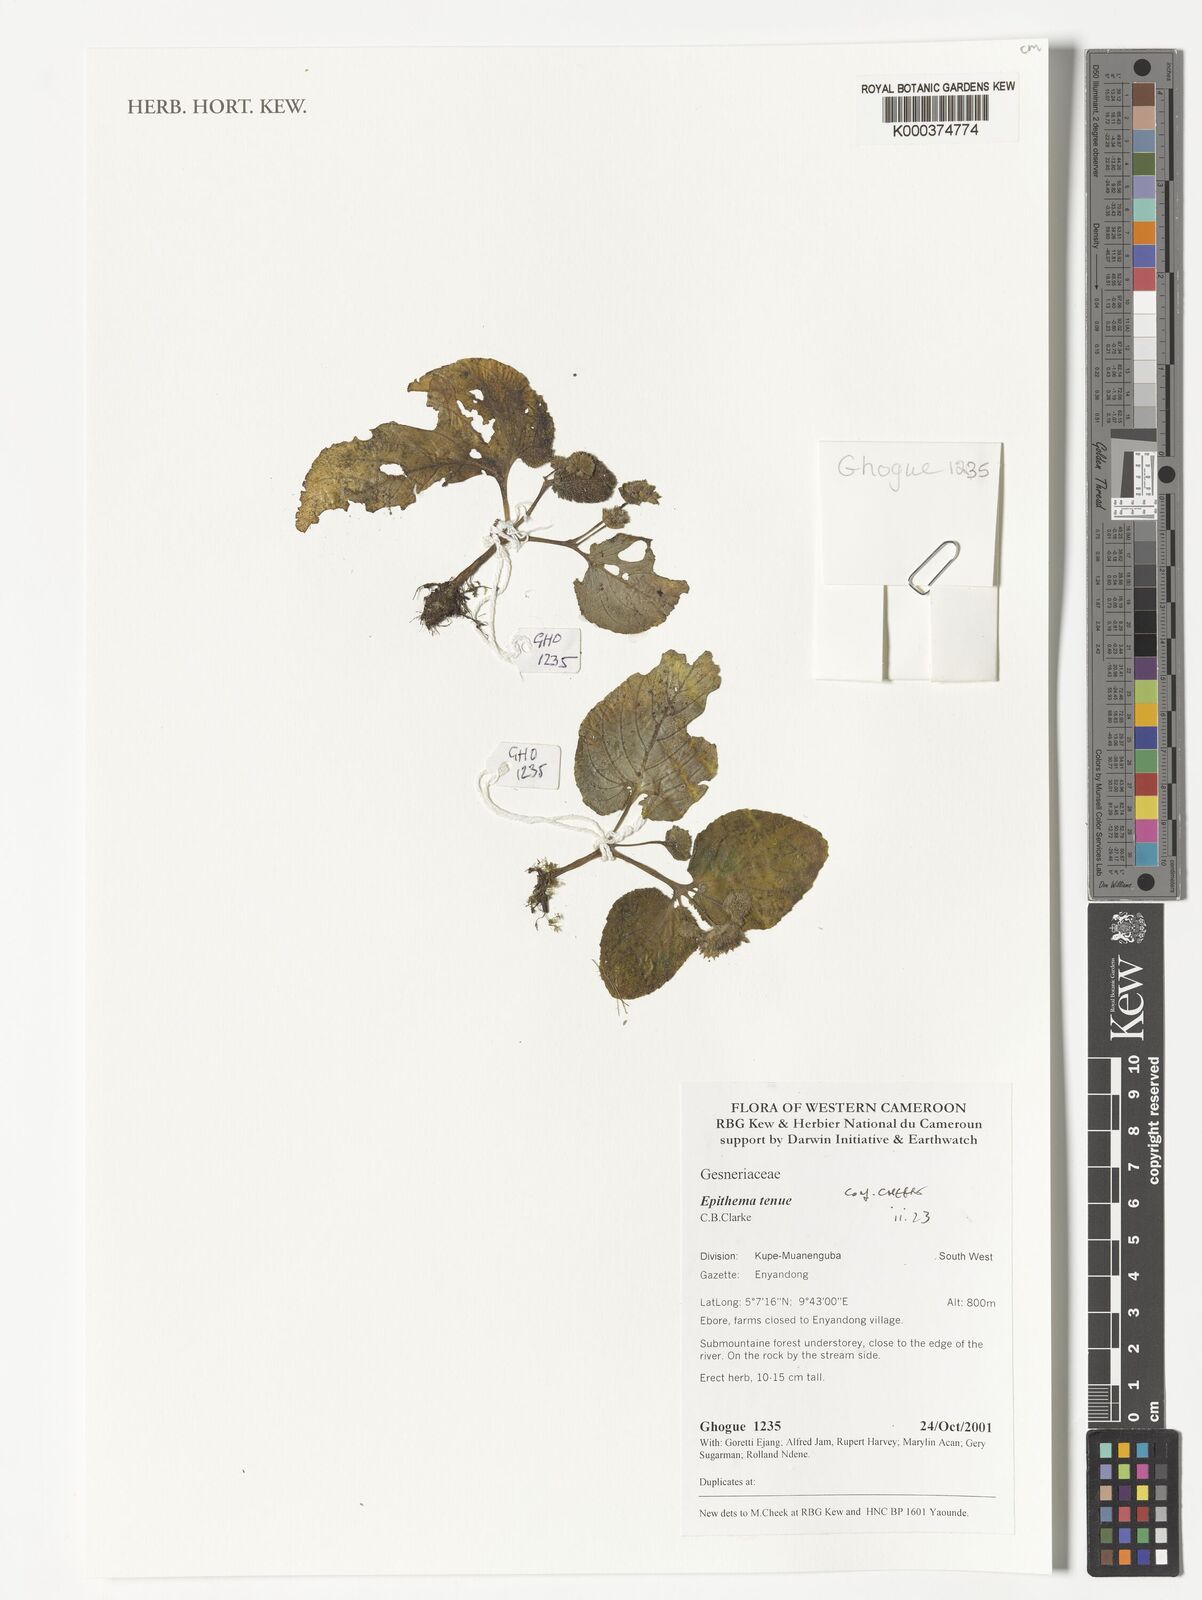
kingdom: Plantae
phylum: Tracheophyta
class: Magnoliopsida
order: Lamiales
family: Gesneriaceae
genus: Epithema
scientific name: Epithema tenue
